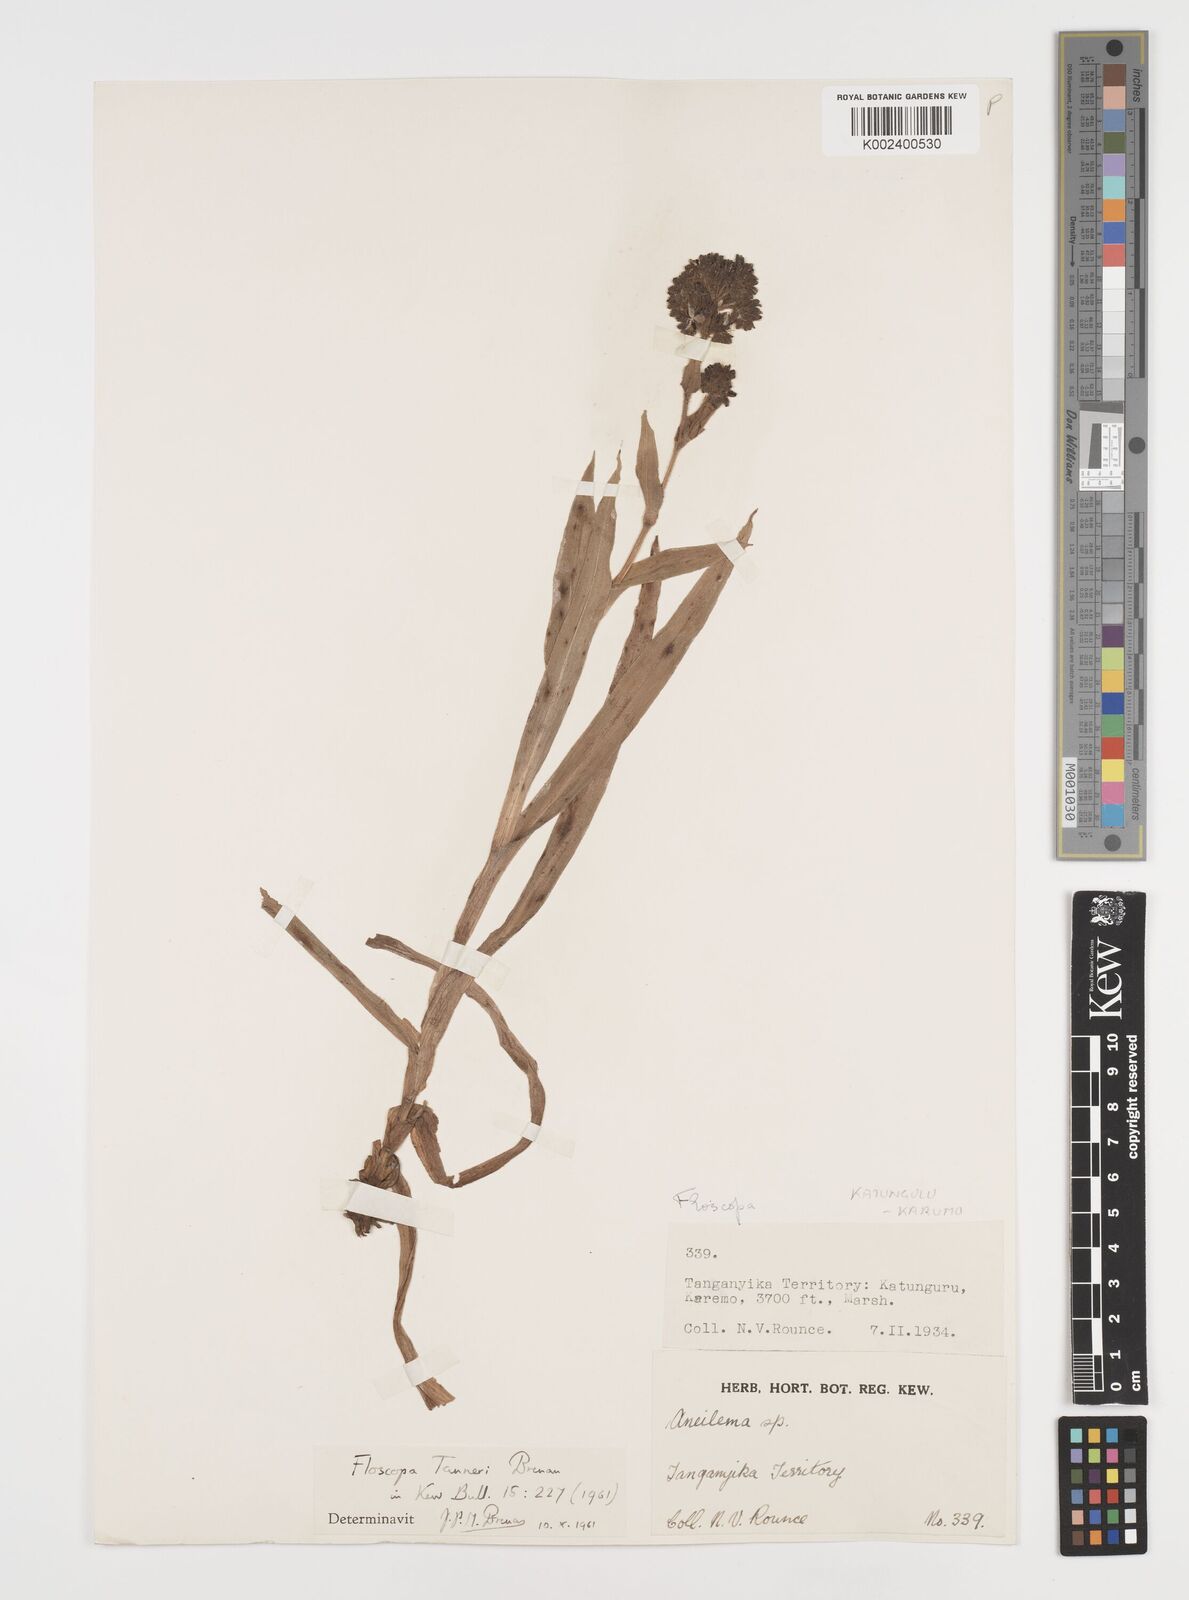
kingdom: Plantae
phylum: Tracheophyta
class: Liliopsida
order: Commelinales
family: Commelinaceae
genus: Floscopa
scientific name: Floscopa tanneri
